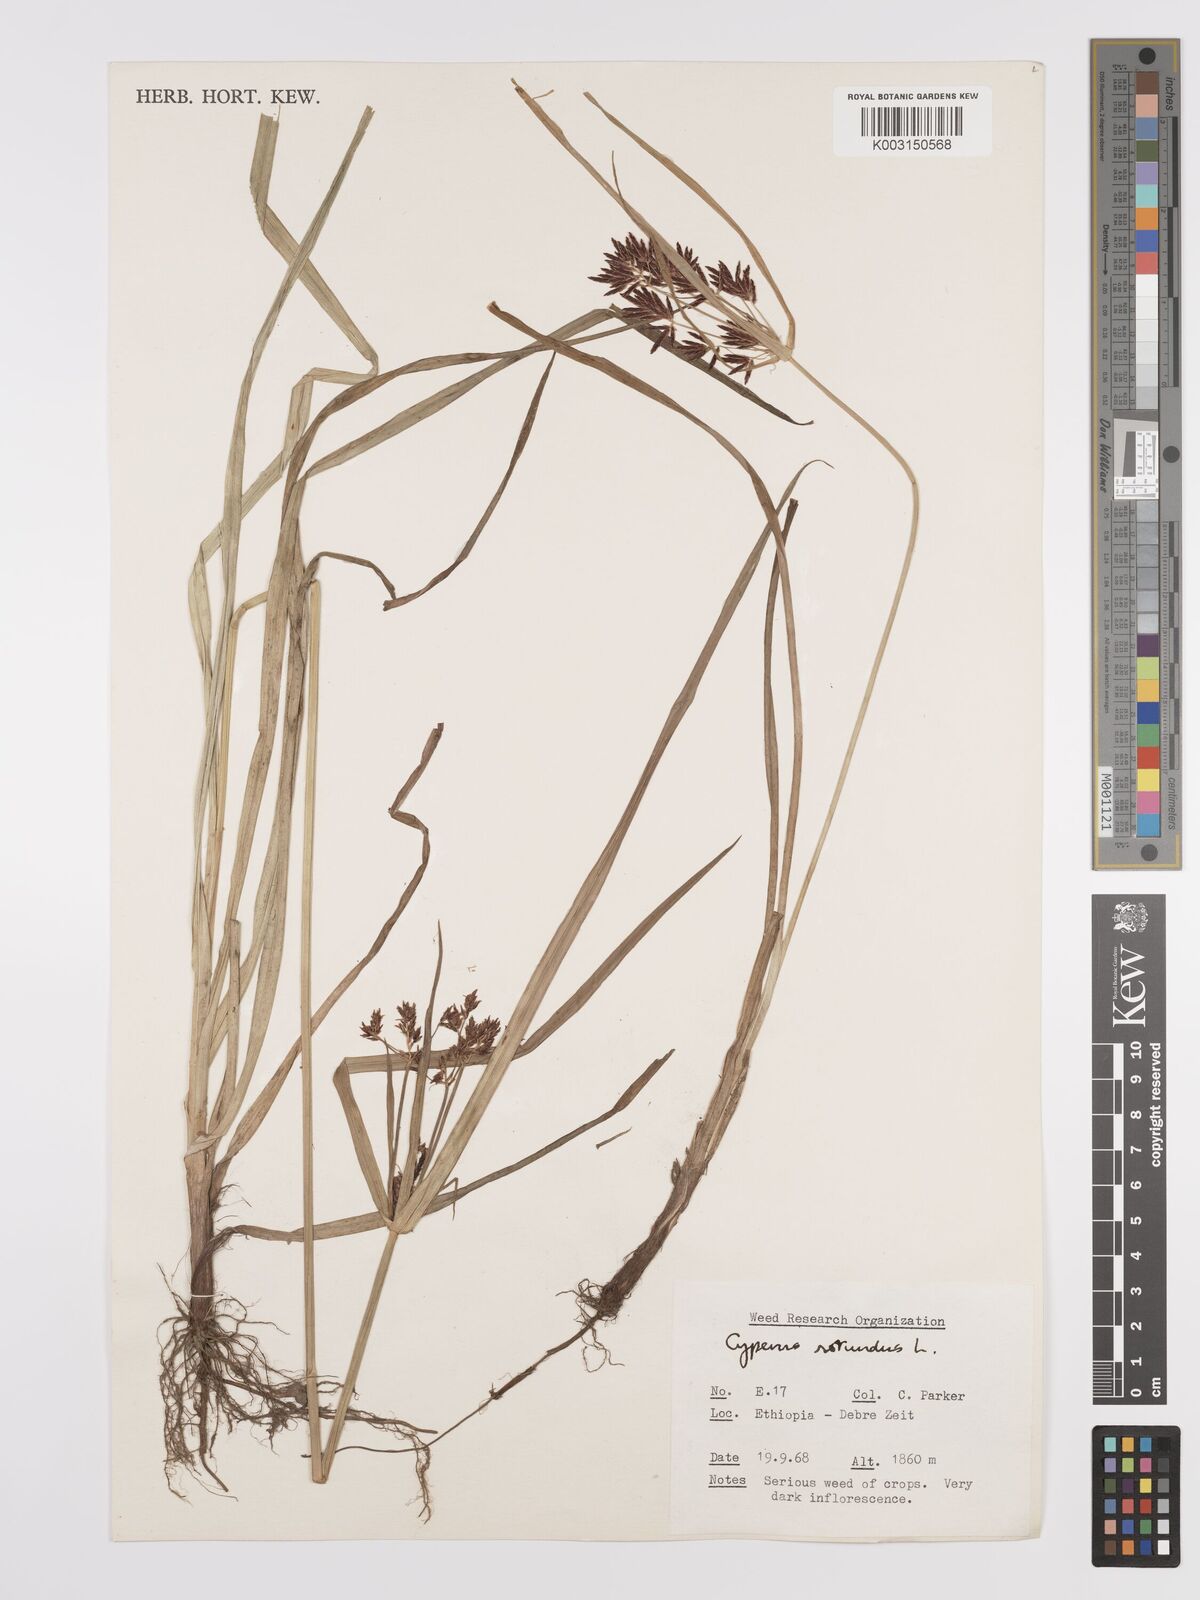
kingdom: Plantae
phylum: Tracheophyta
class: Liliopsida
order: Poales
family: Cyperaceae
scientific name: Cyperaceae
